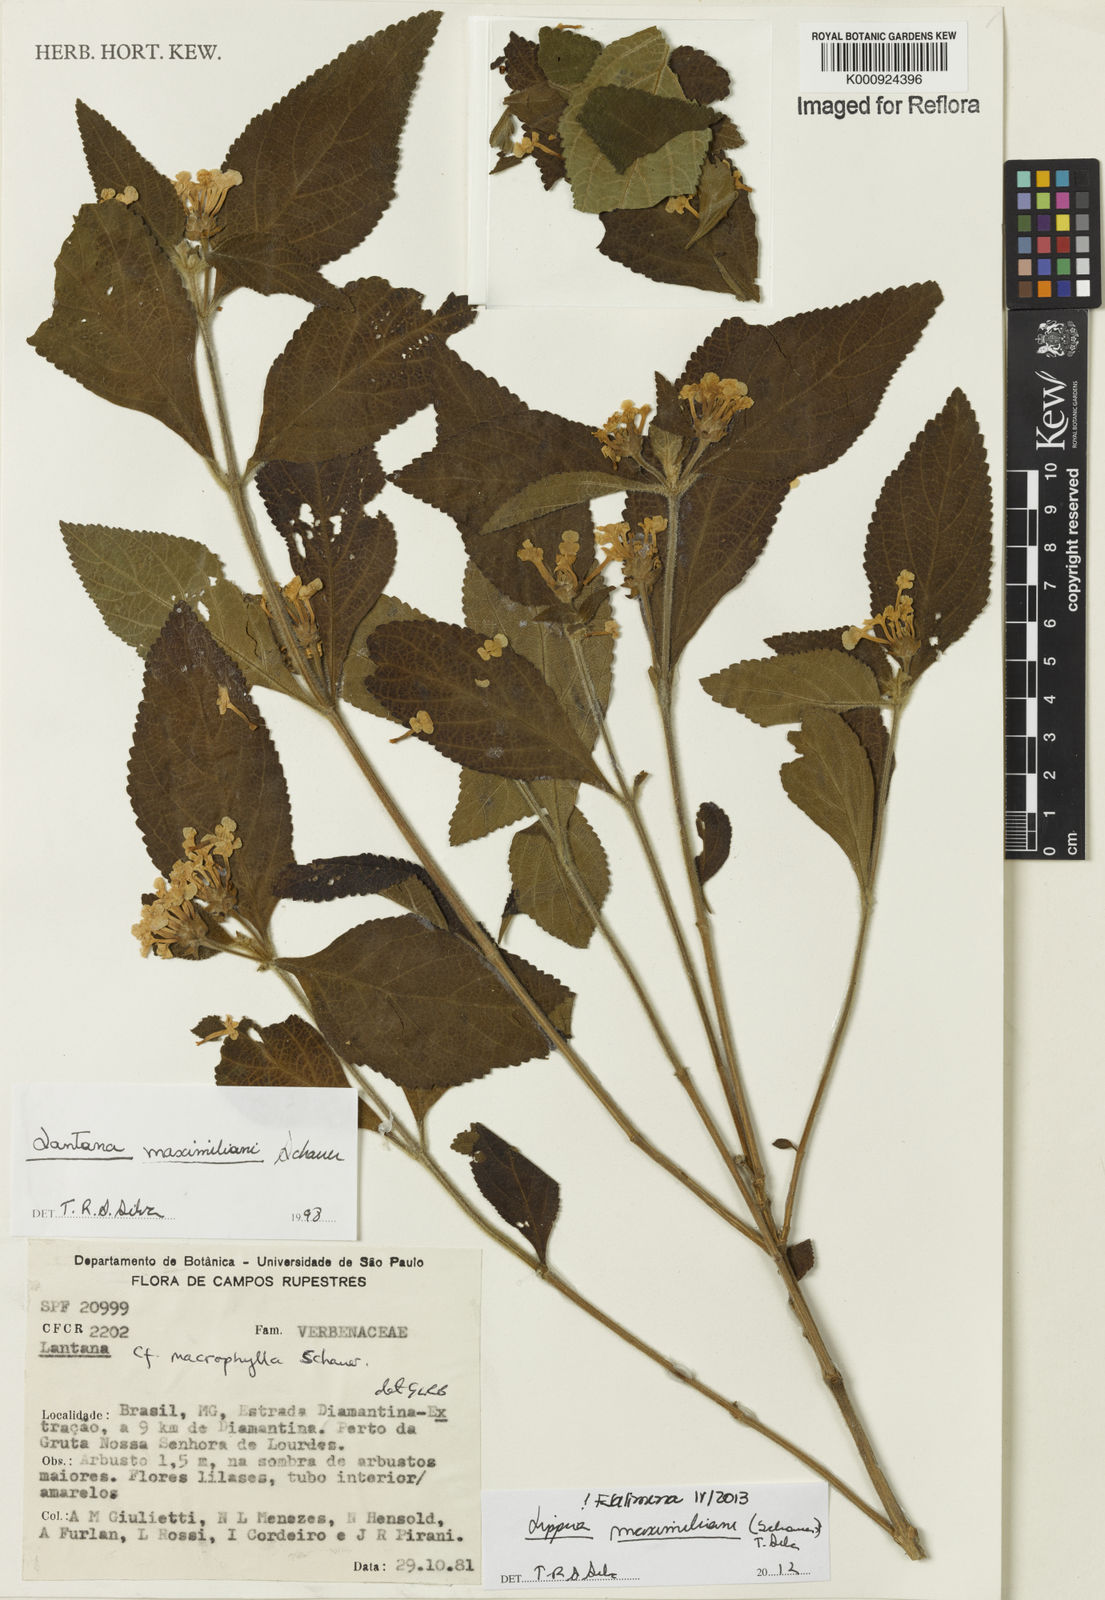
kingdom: Plantae
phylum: Tracheophyta
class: Magnoliopsida
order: Lamiales
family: Verbenaceae
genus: Lippia
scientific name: Lippia maximiliani
